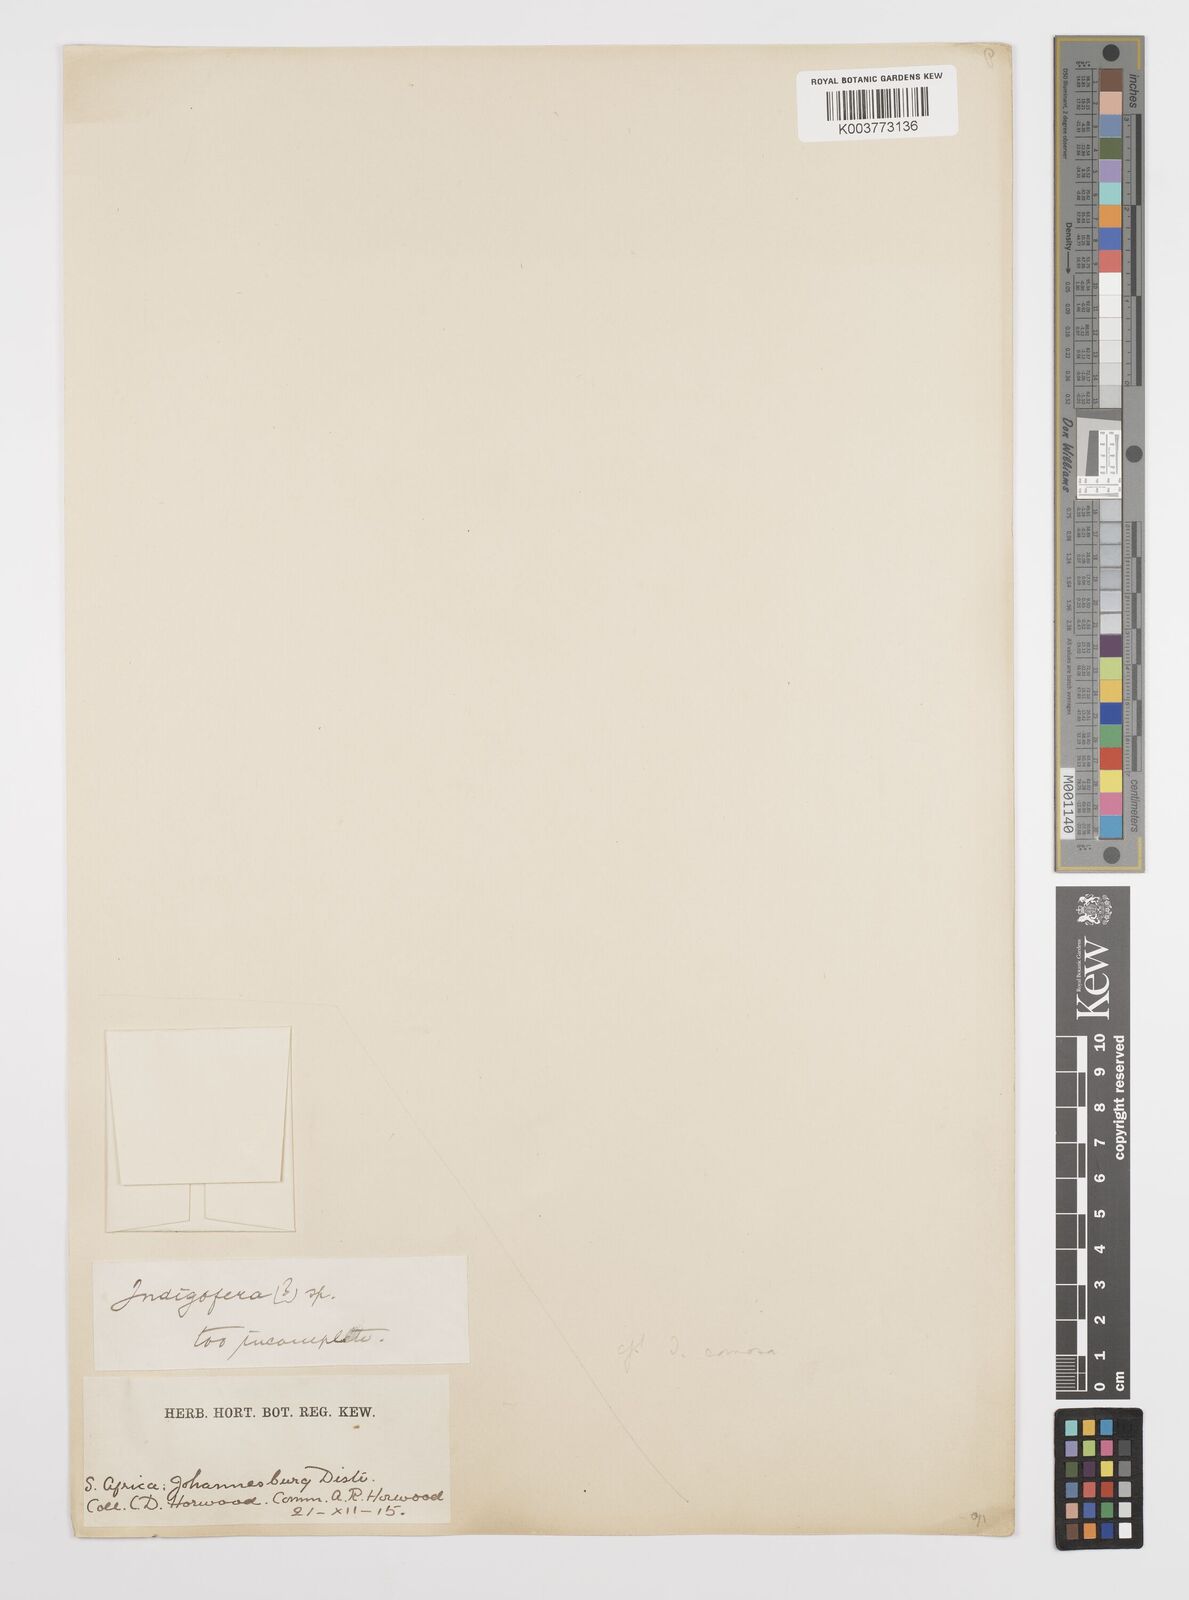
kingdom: Plantae
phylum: Tracheophyta
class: Magnoliopsida
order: Fabales
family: Fabaceae
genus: Indigofera
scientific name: Indigofera
